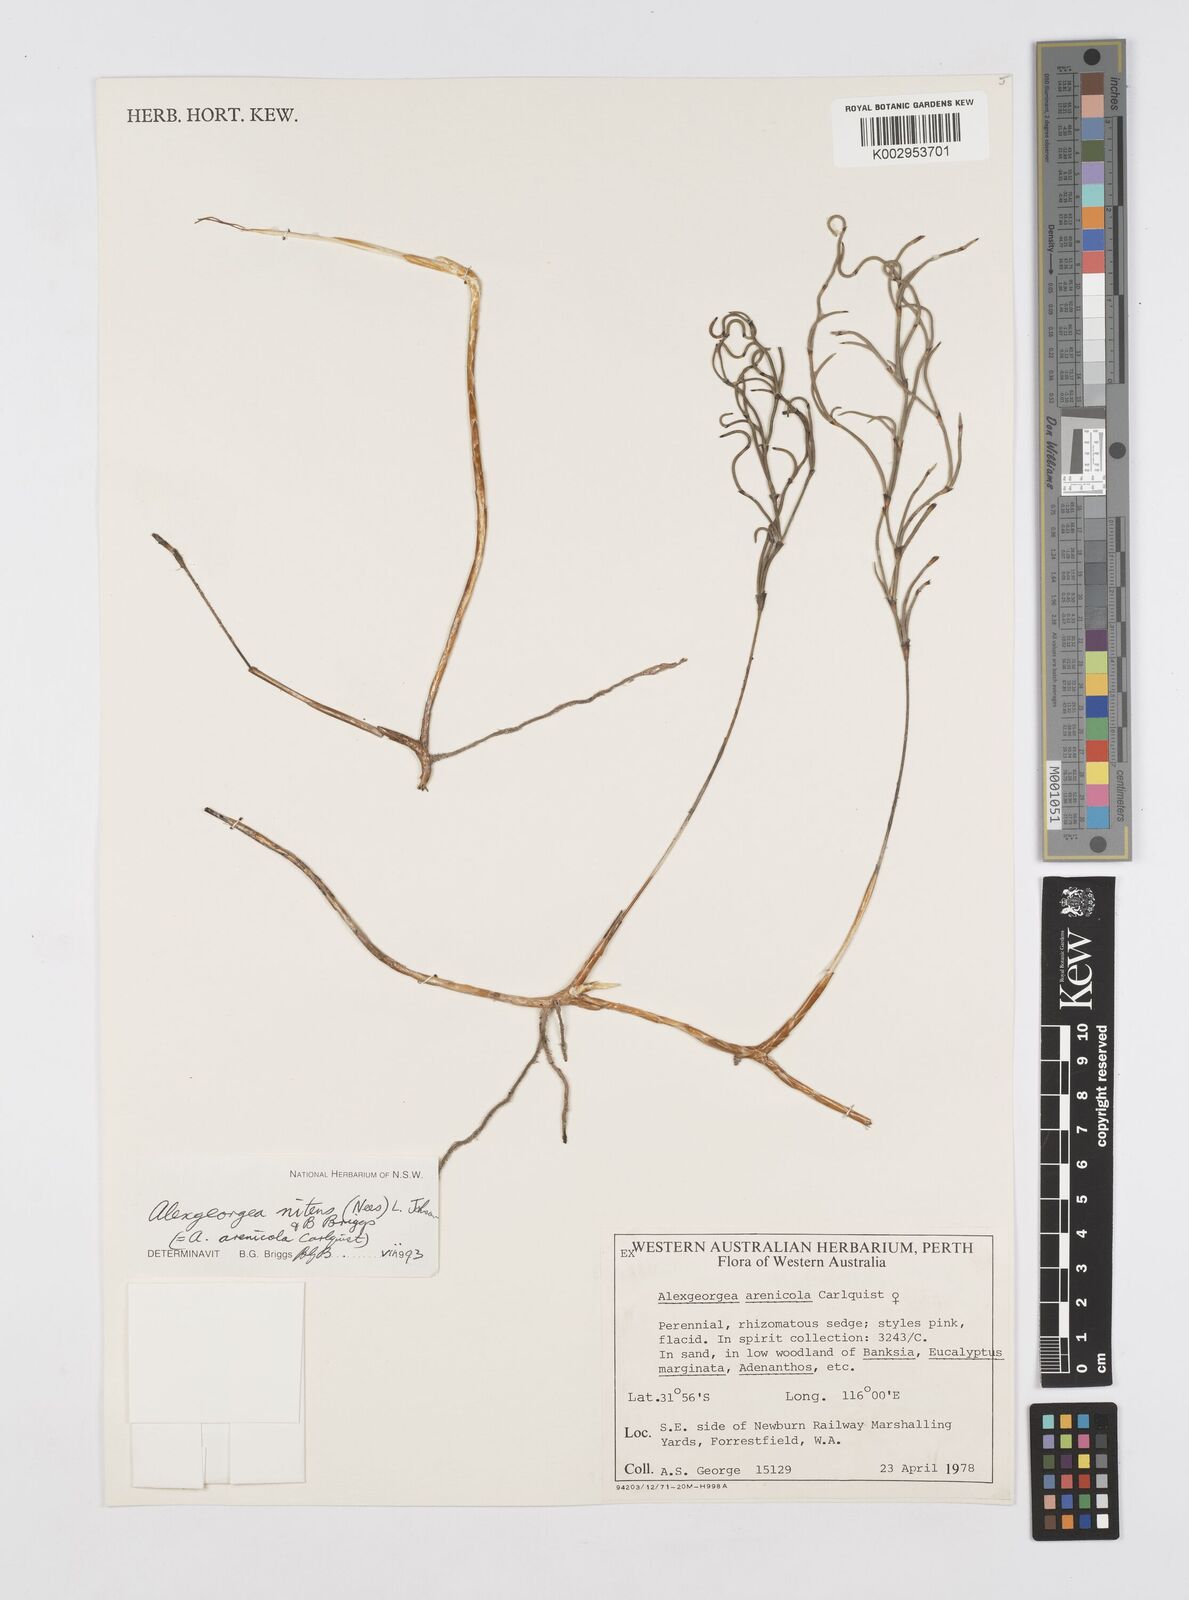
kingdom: Plantae
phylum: Tracheophyta
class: Liliopsida
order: Poales
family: Restionaceae
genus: Alexgeorgea
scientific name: Alexgeorgea nitens
